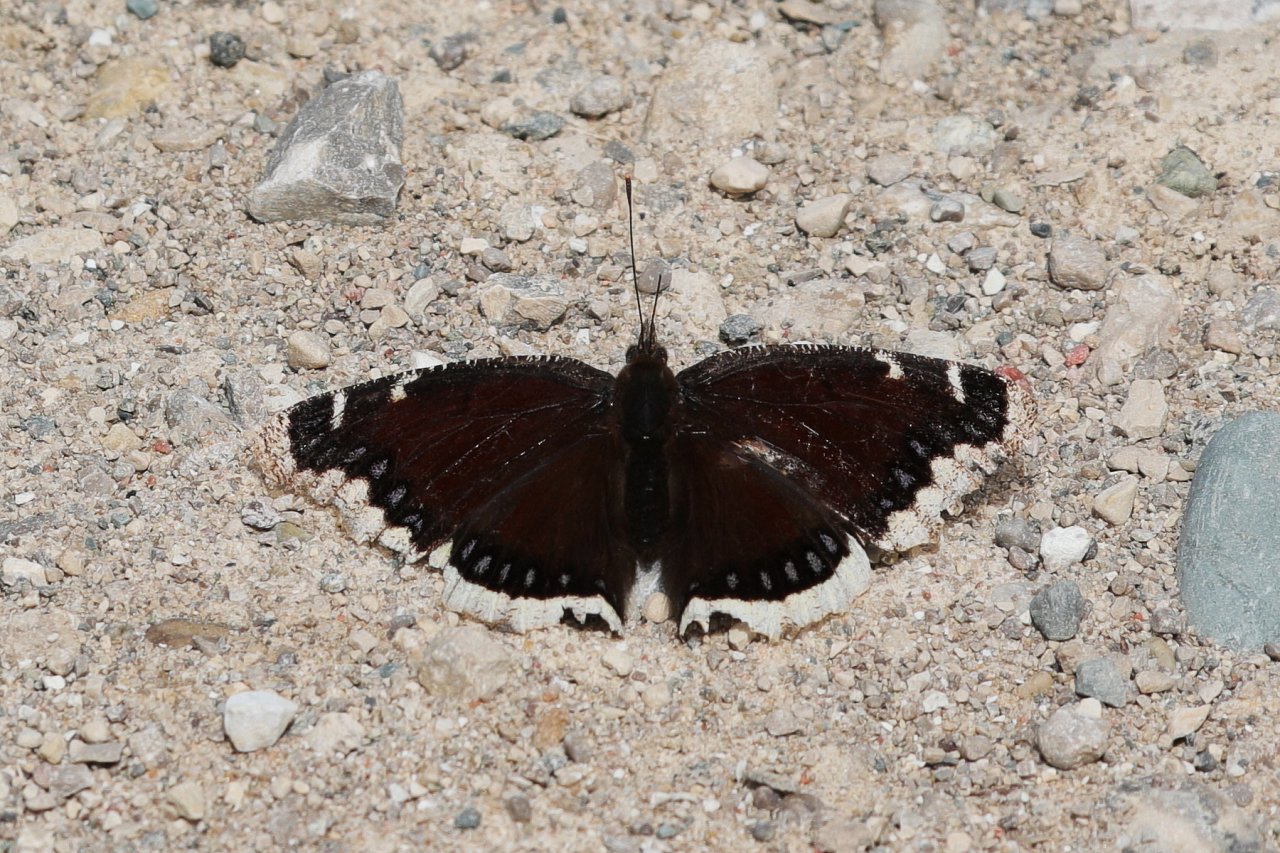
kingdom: Animalia
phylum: Arthropoda
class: Insecta
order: Lepidoptera
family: Nymphalidae
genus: Nymphalis
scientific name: Nymphalis antiopa
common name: Mourning Cloak
